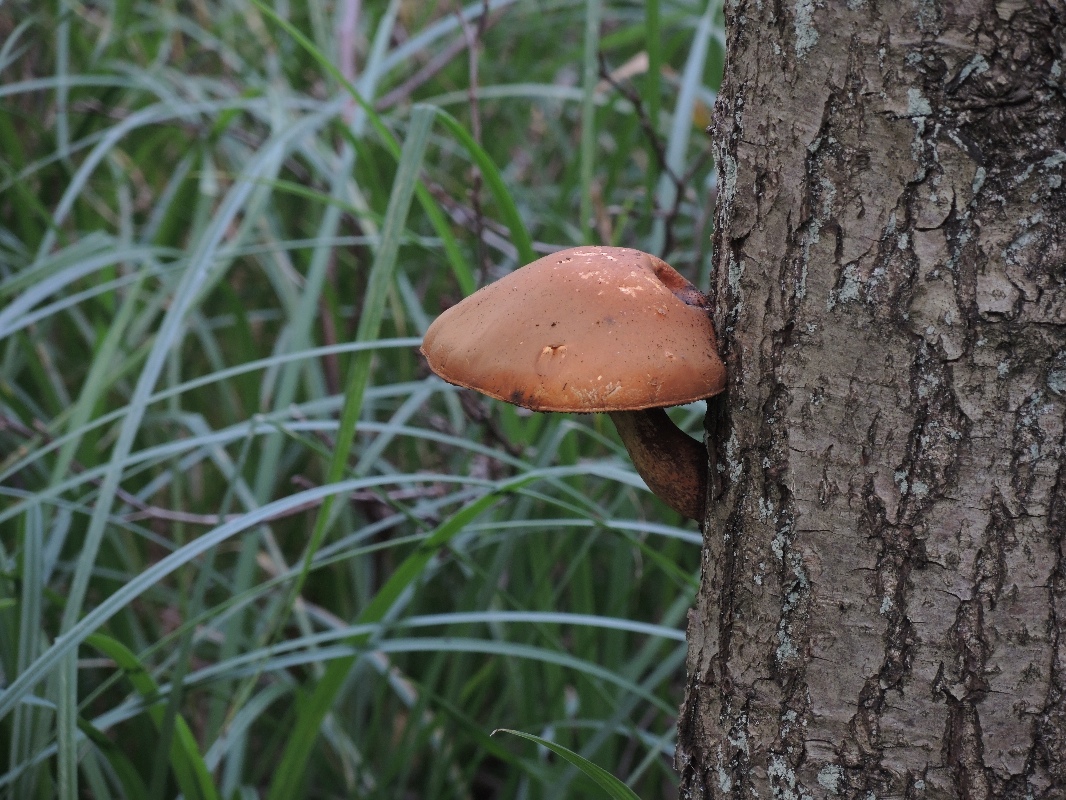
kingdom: Fungi
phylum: Basidiomycota
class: Agaricomycetes
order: Agaricales
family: Strophariaceae
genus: Pholiota
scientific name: Pholiota heteroclita
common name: duftende kæmpeskælhat
